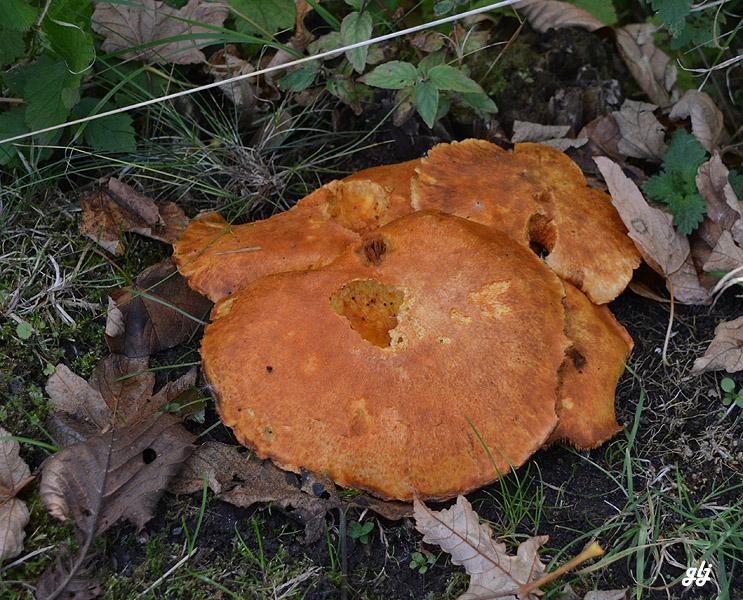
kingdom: Fungi
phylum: Basidiomycota
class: Agaricomycetes
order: Agaricales
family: Hymenogastraceae
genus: Gymnopilus
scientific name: Gymnopilus spectabilis
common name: fibret flammehat
